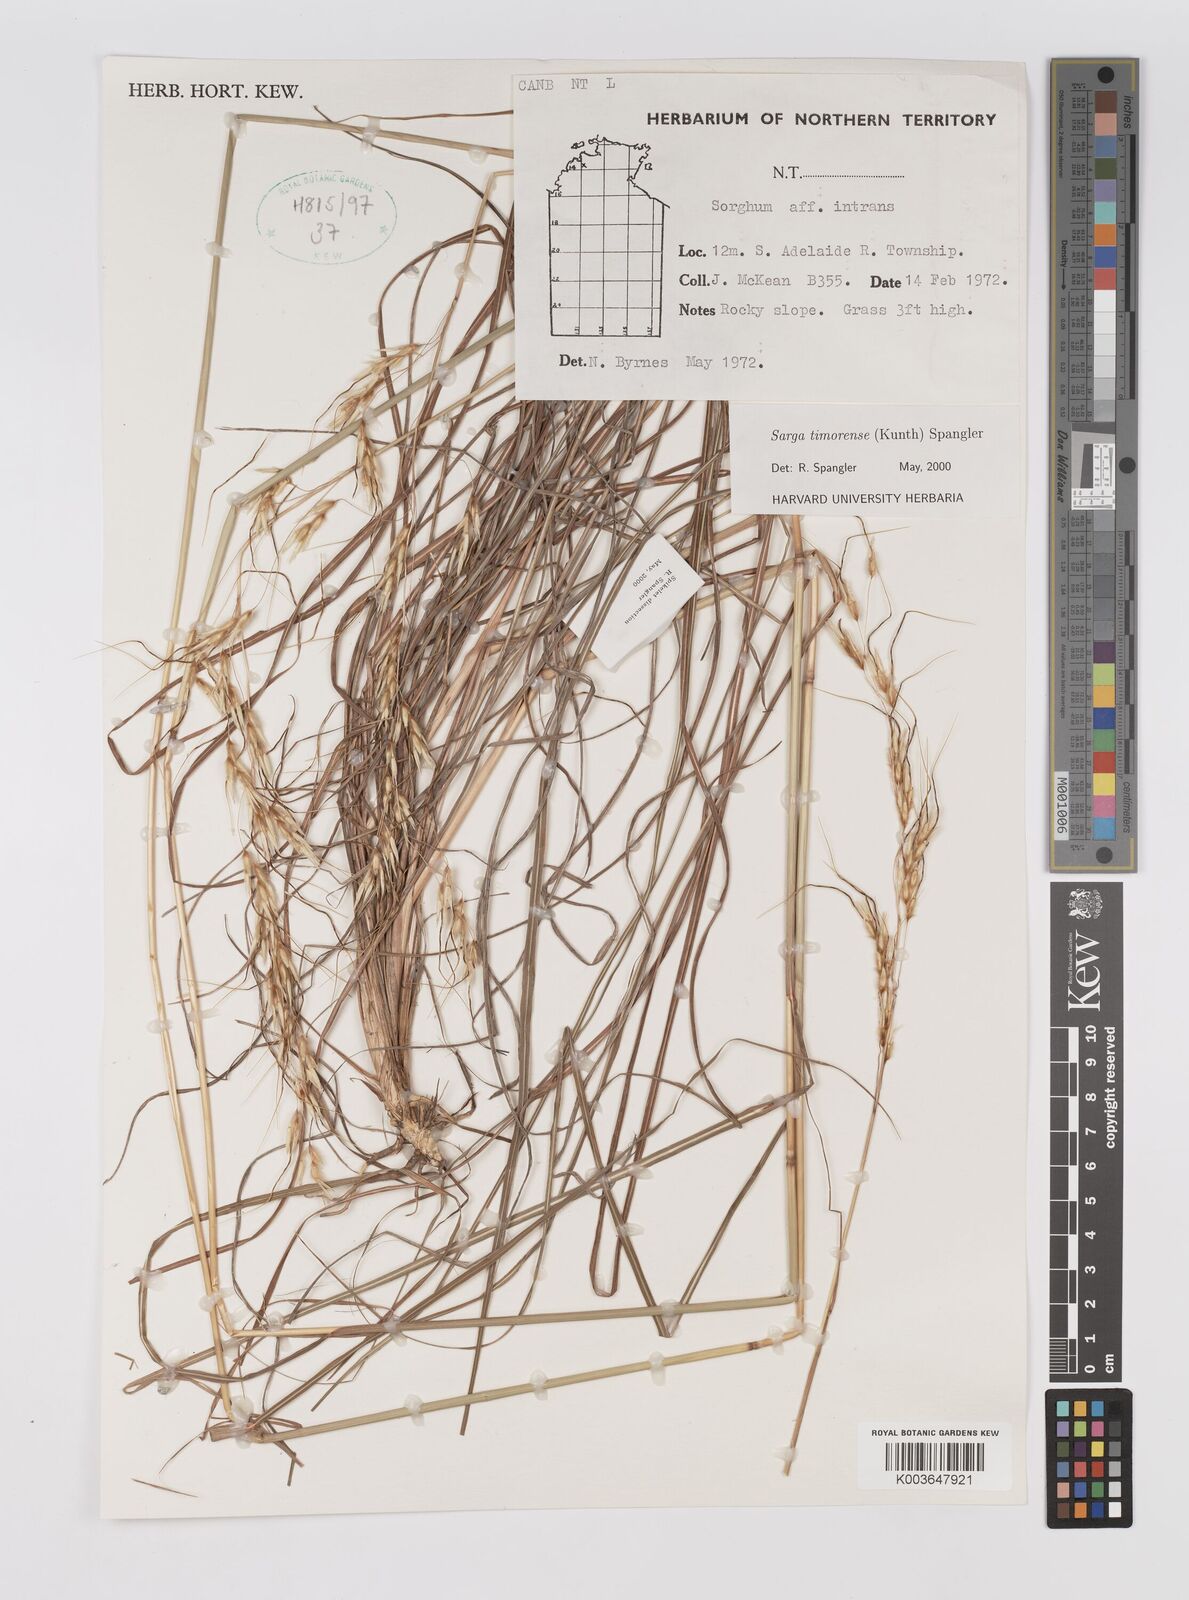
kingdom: Plantae
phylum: Tracheophyta
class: Liliopsida
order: Poales
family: Poaceae
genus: Sarga
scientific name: Sarga timorensis
